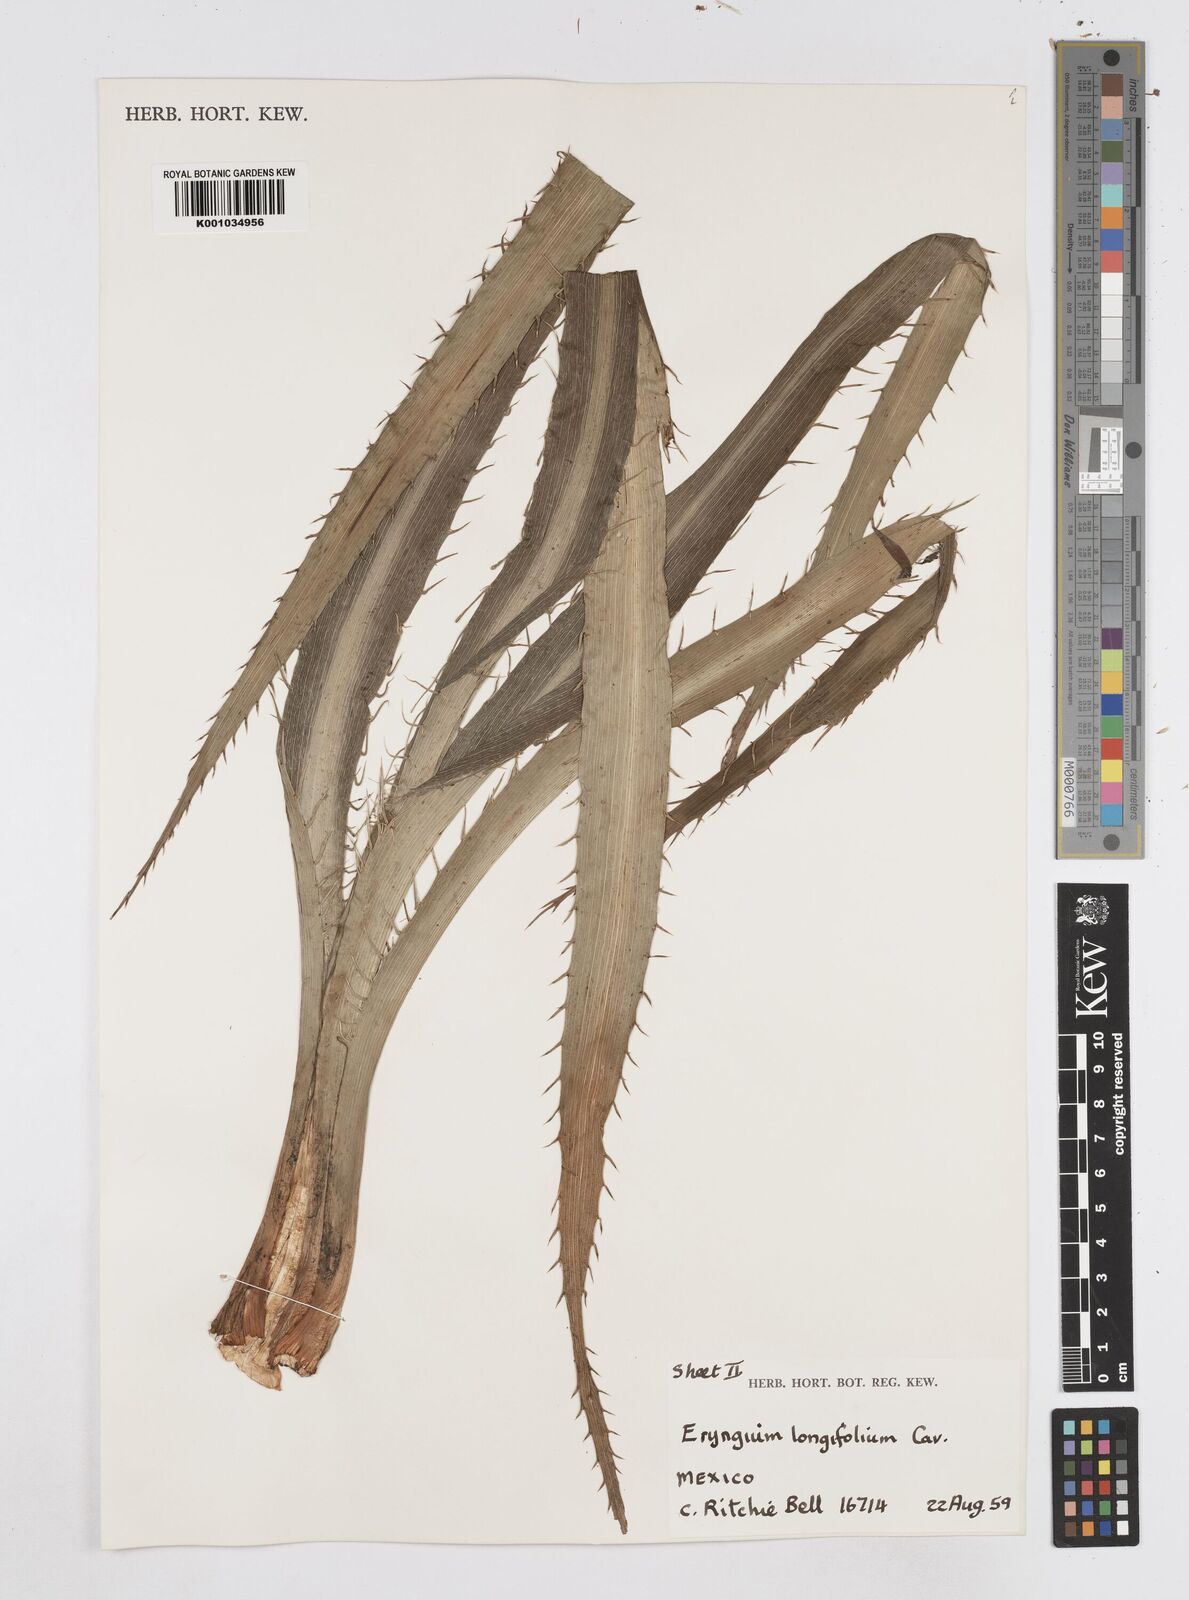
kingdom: Plantae
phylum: Tracheophyta
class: Magnoliopsida
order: Apiales
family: Apiaceae
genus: Eryngium
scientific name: Eryngium longifolium
